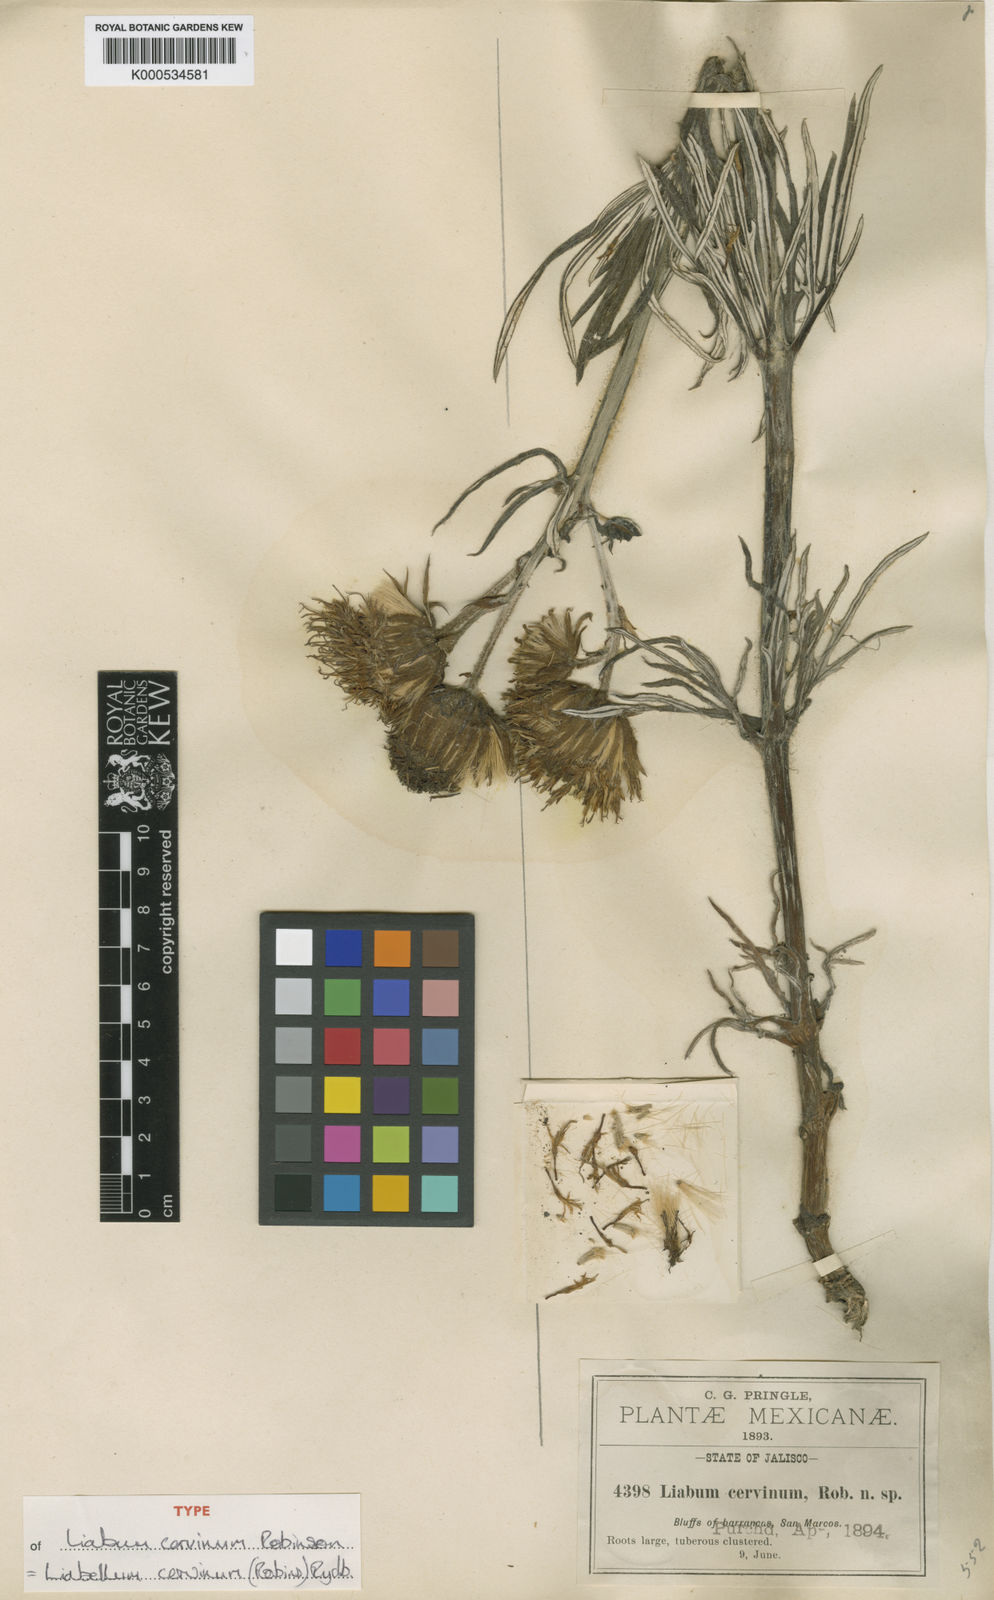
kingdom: Plantae
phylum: Tracheophyta
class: Magnoliopsida
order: Asterales
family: Asteraceae
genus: Liabum
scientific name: Liabum
